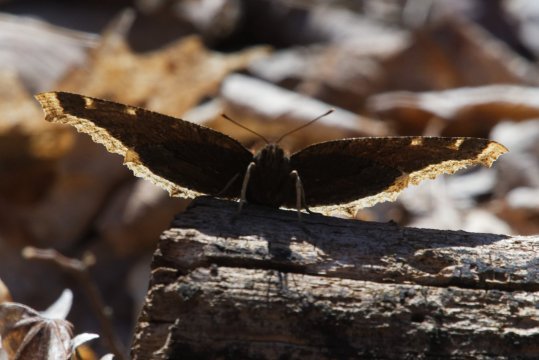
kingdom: Animalia
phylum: Arthropoda
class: Insecta
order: Lepidoptera
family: Nymphalidae
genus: Nymphalis
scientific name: Nymphalis antiopa
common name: Mourning Cloak
